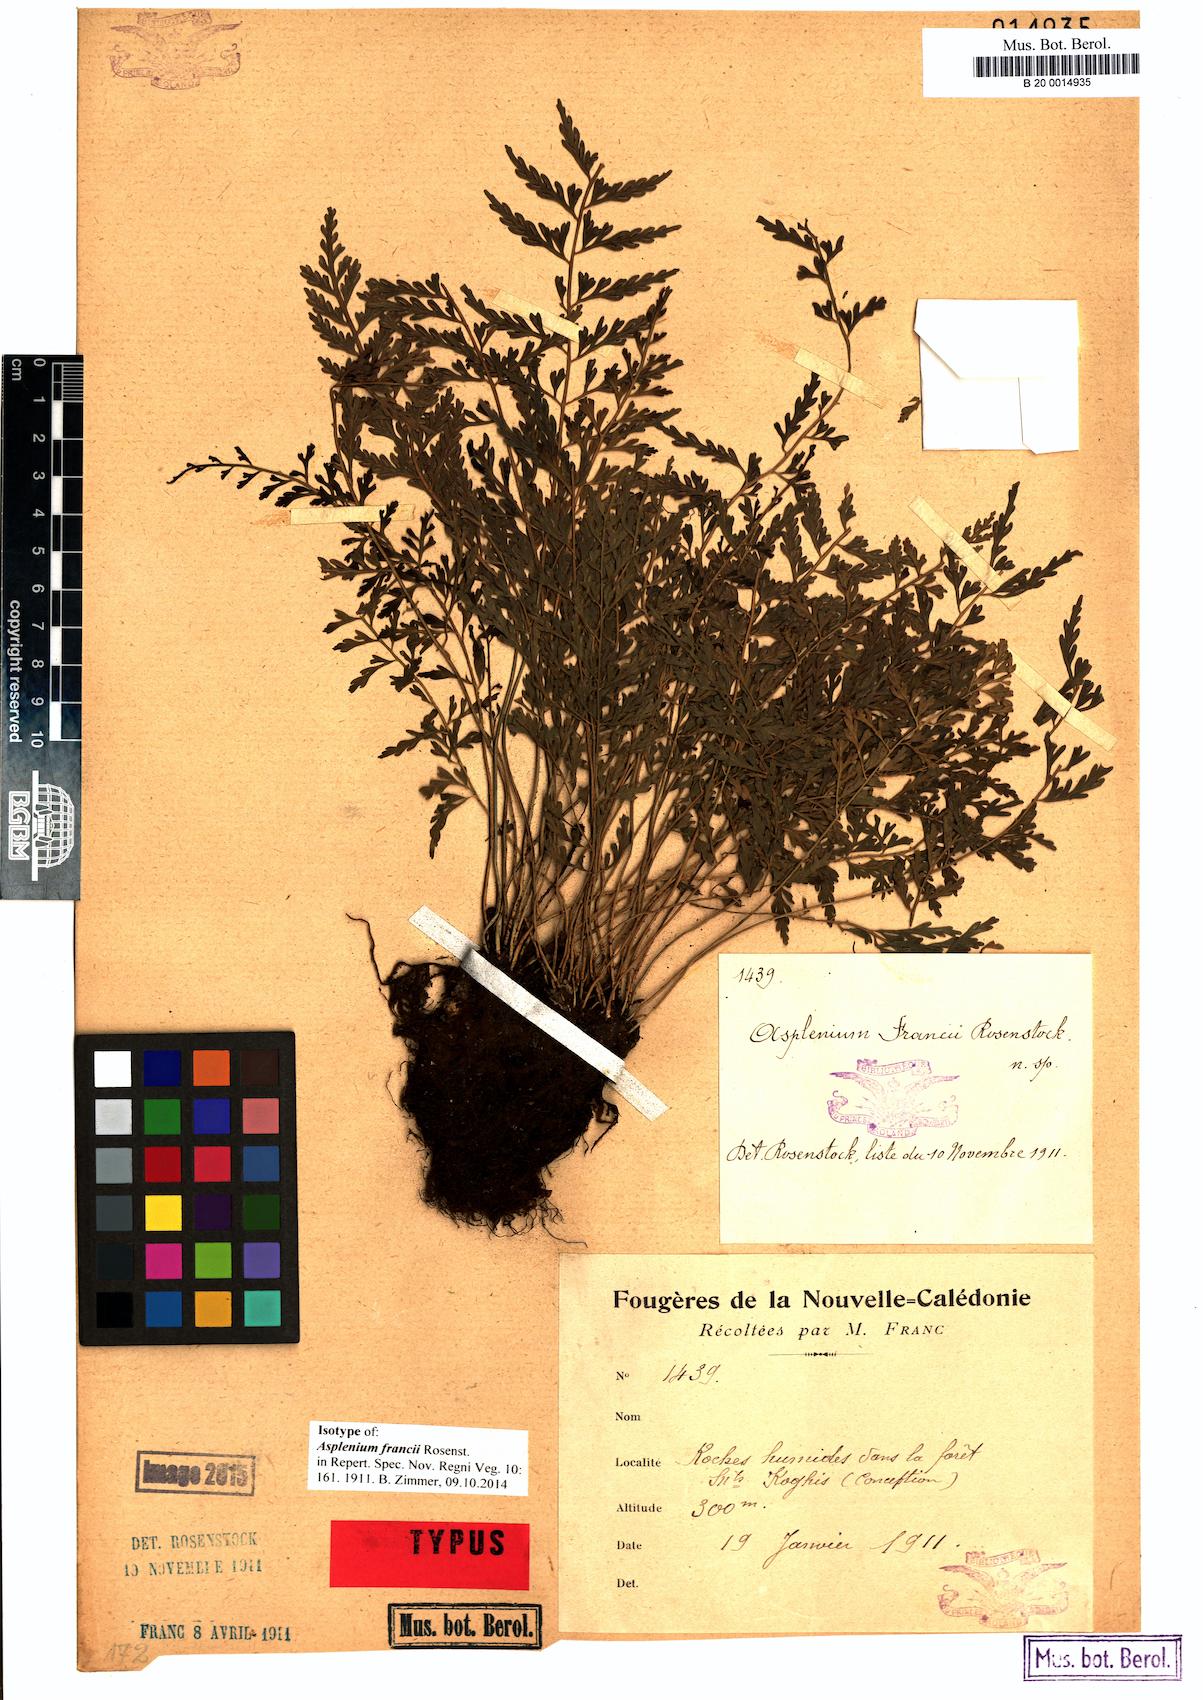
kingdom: Plantae
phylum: Tracheophyta
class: Polypodiopsida
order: Polypodiales
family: Aspleniaceae
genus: Asplenium
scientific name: Asplenium francii
